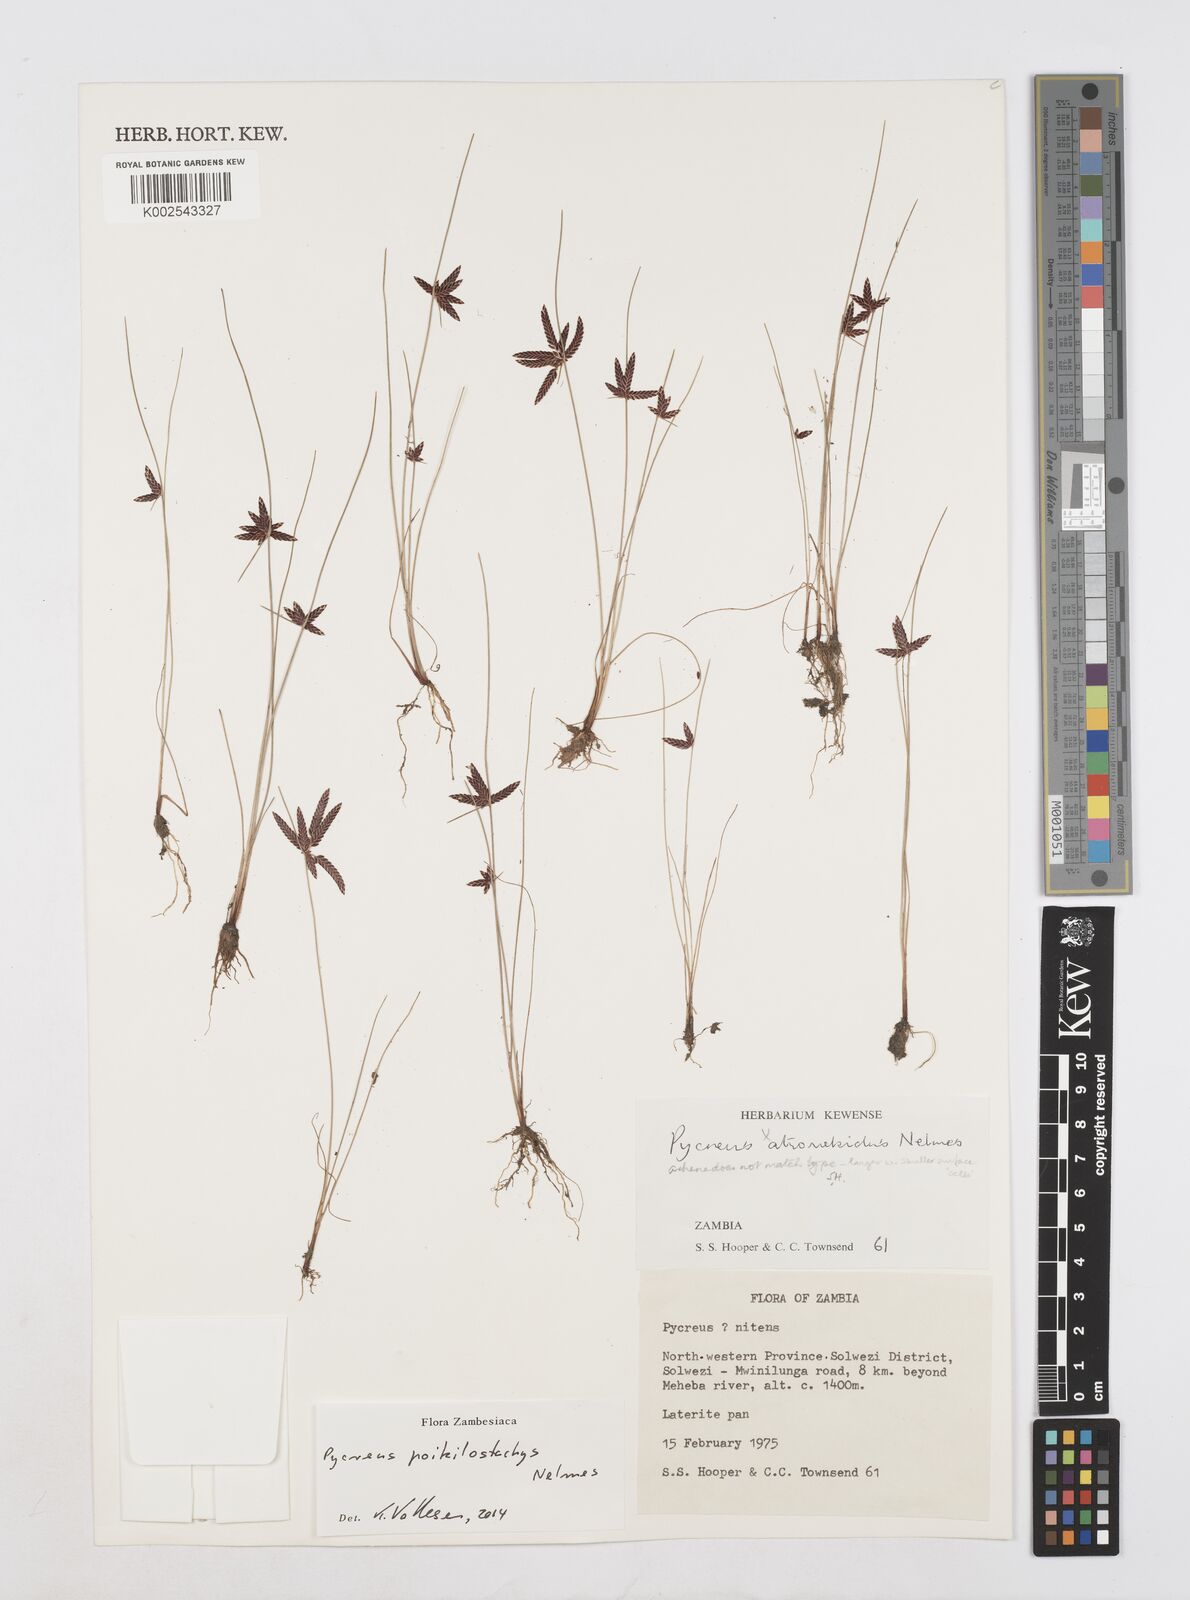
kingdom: Plantae
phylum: Tracheophyta
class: Liliopsida
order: Poales
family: Cyperaceae
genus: Cyperus
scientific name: Cyperus poikilostachys
